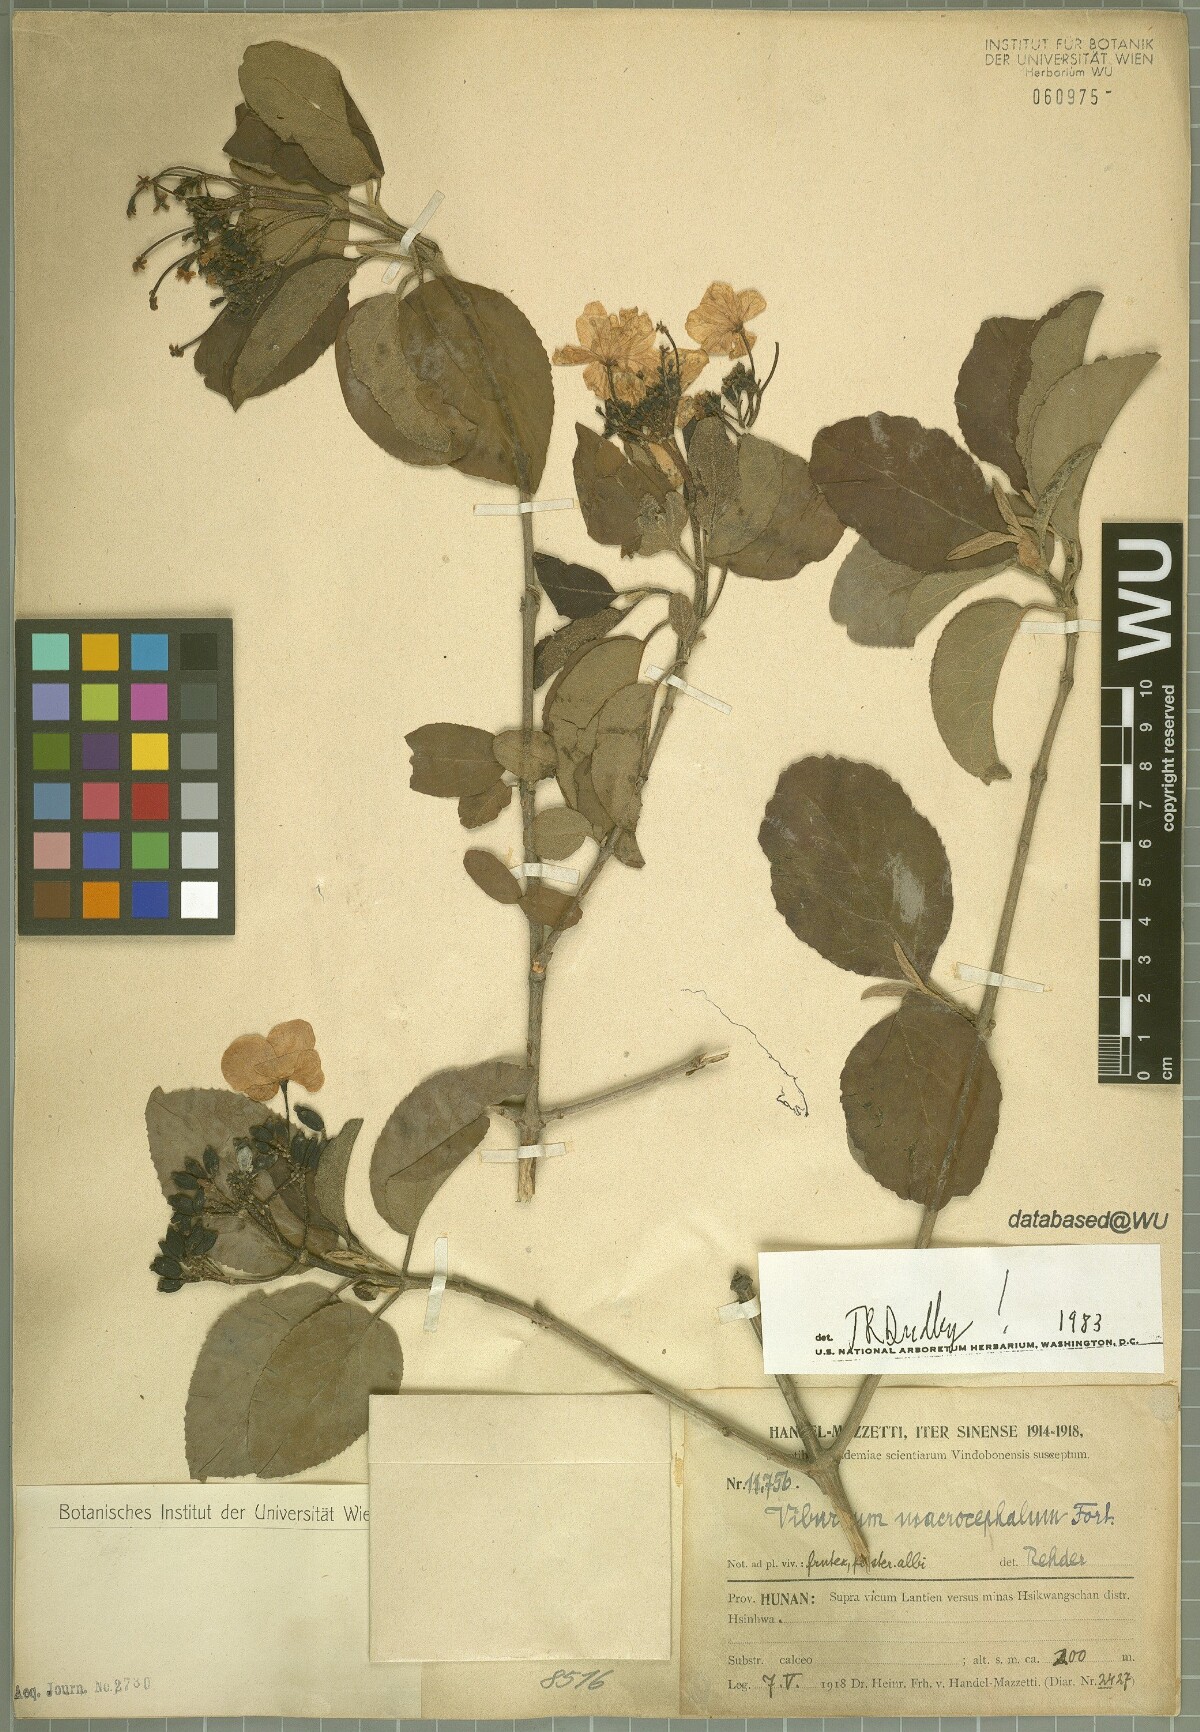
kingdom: Plantae
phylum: Tracheophyta
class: Magnoliopsida
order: Dipsacales
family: Viburnaceae
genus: Viburnum
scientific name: Viburnum macrocephalum
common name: Chinese snowball viburnum
